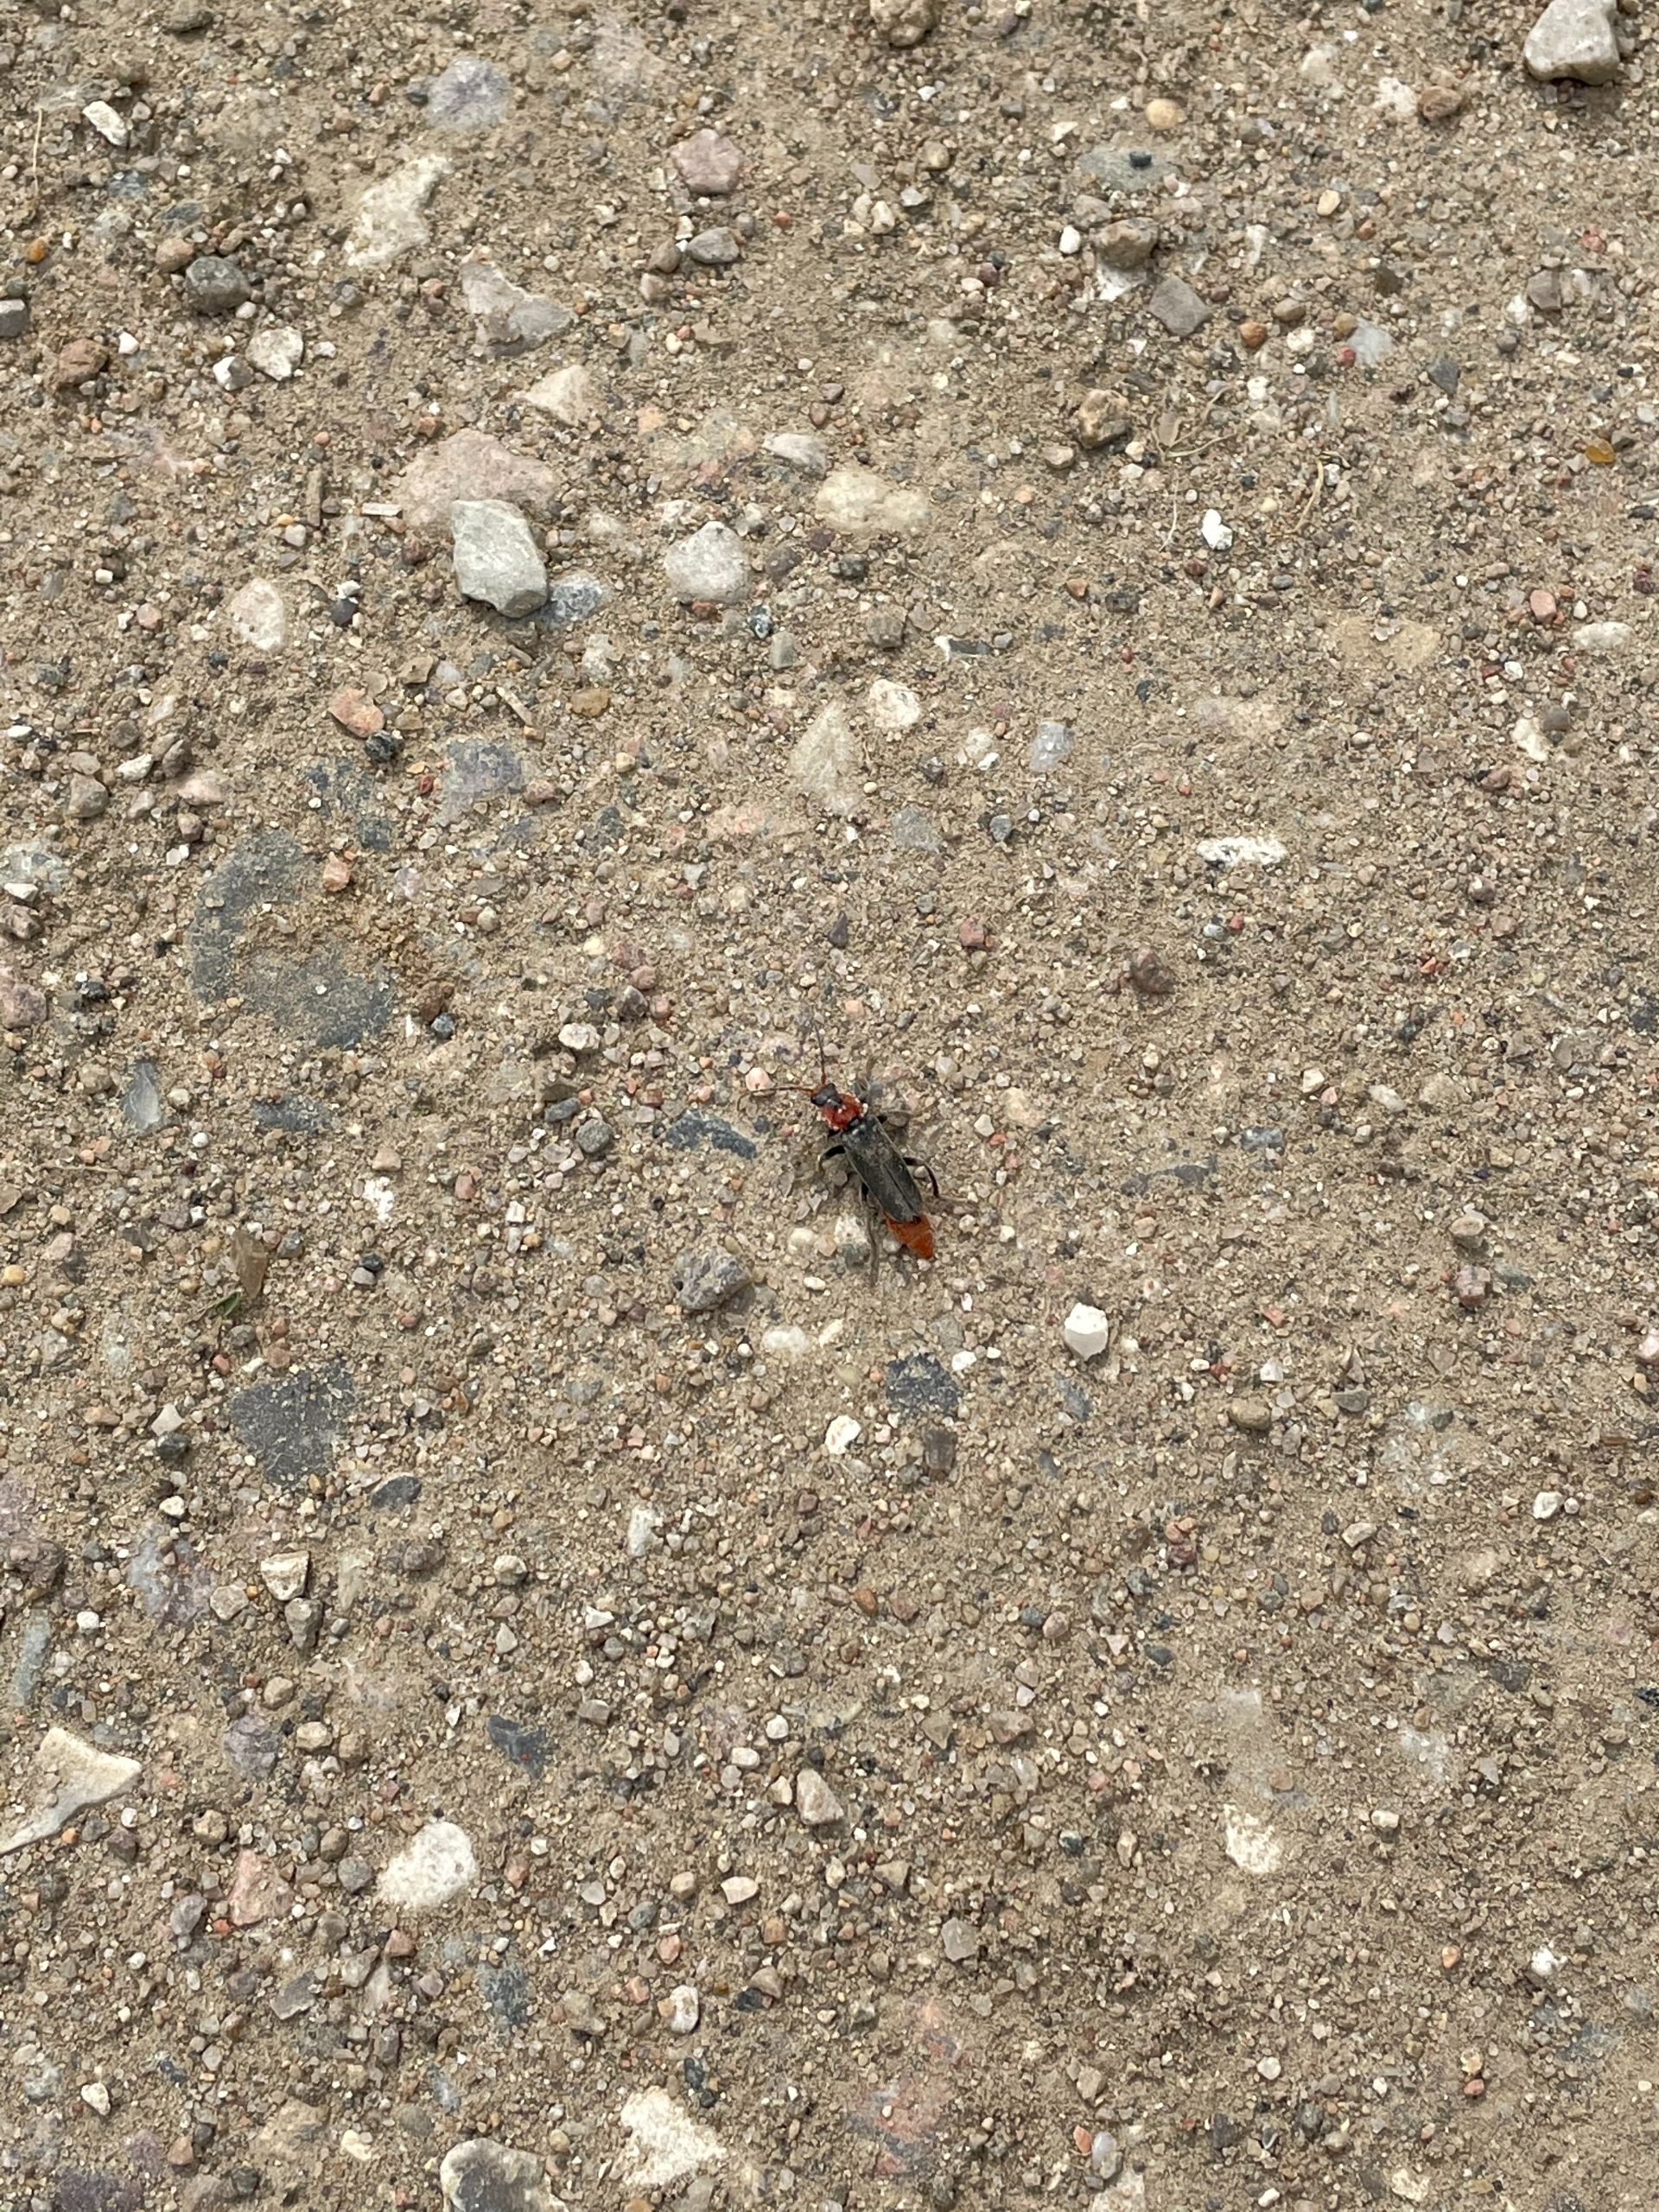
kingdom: Animalia
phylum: Arthropoda
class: Insecta
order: Coleoptera
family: Cantharidae
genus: Cantharis
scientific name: Cantharis fusca
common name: Stor blødvinge
